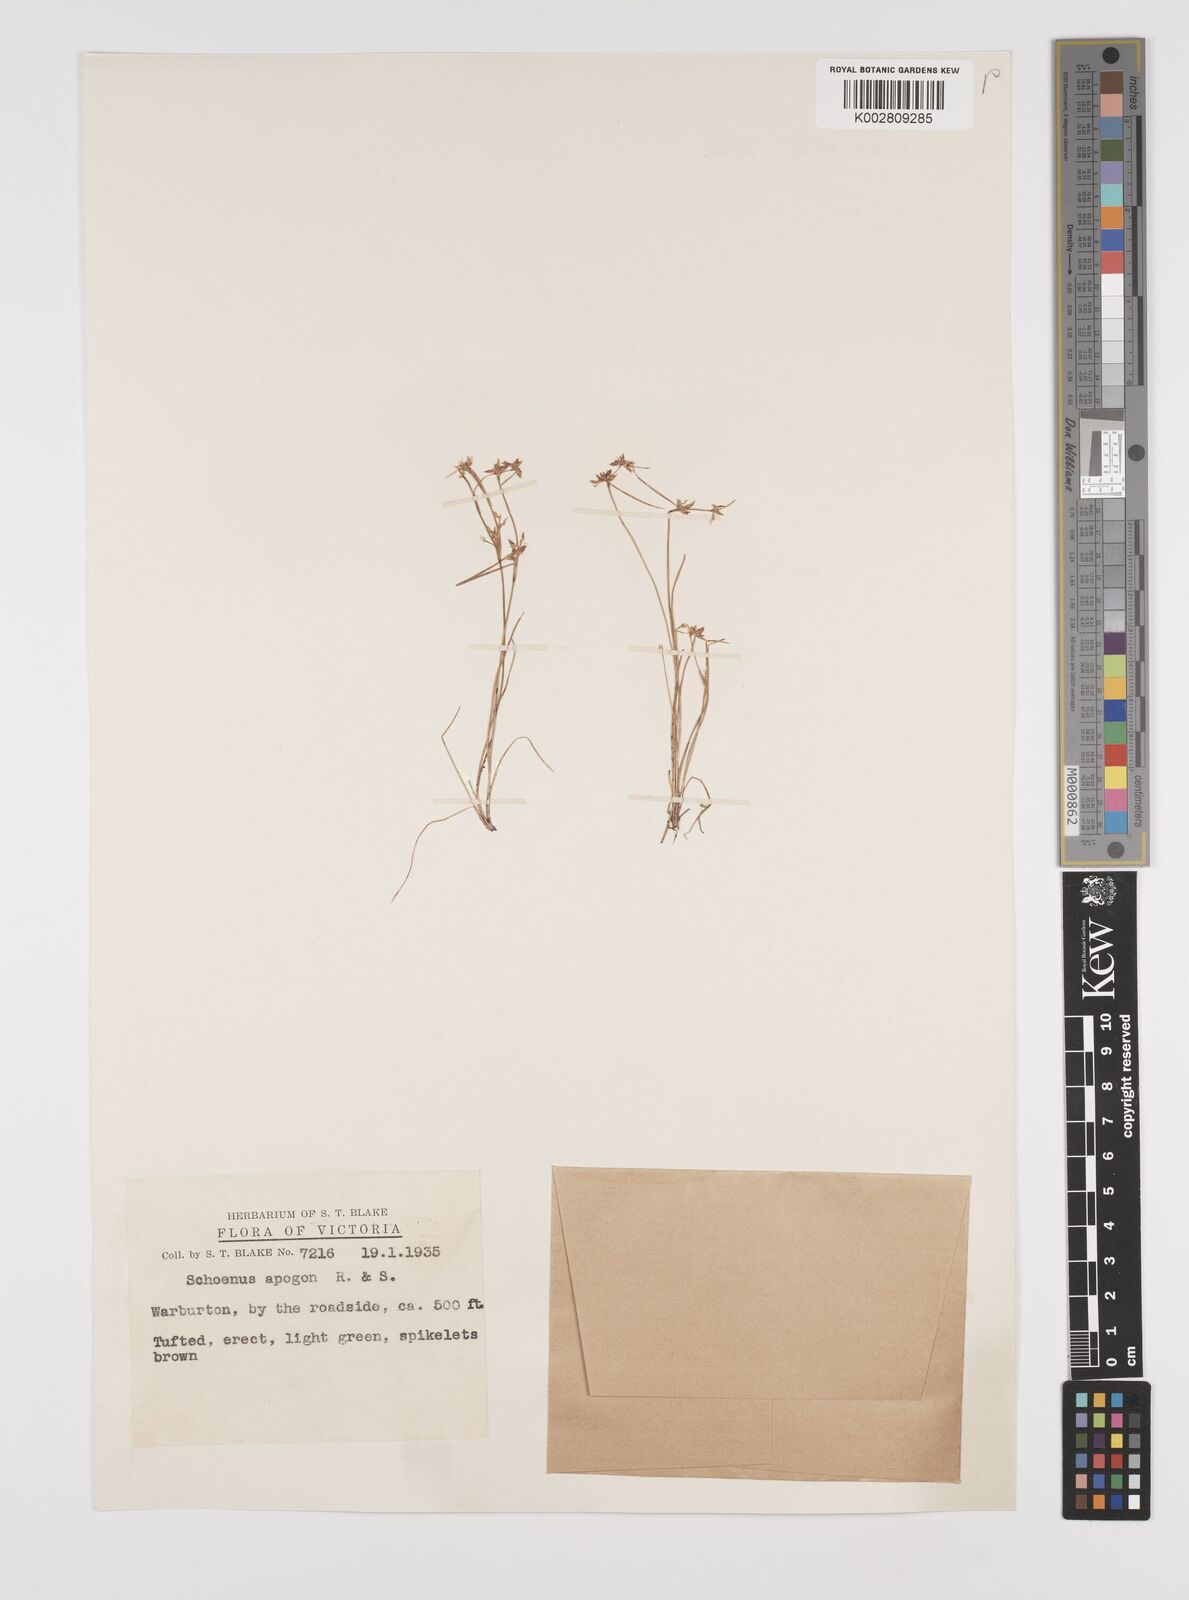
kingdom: Plantae
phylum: Tracheophyta
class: Liliopsida
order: Poales
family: Cyperaceae
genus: Schoenus
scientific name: Schoenus apogon
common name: Smooth bogrush
